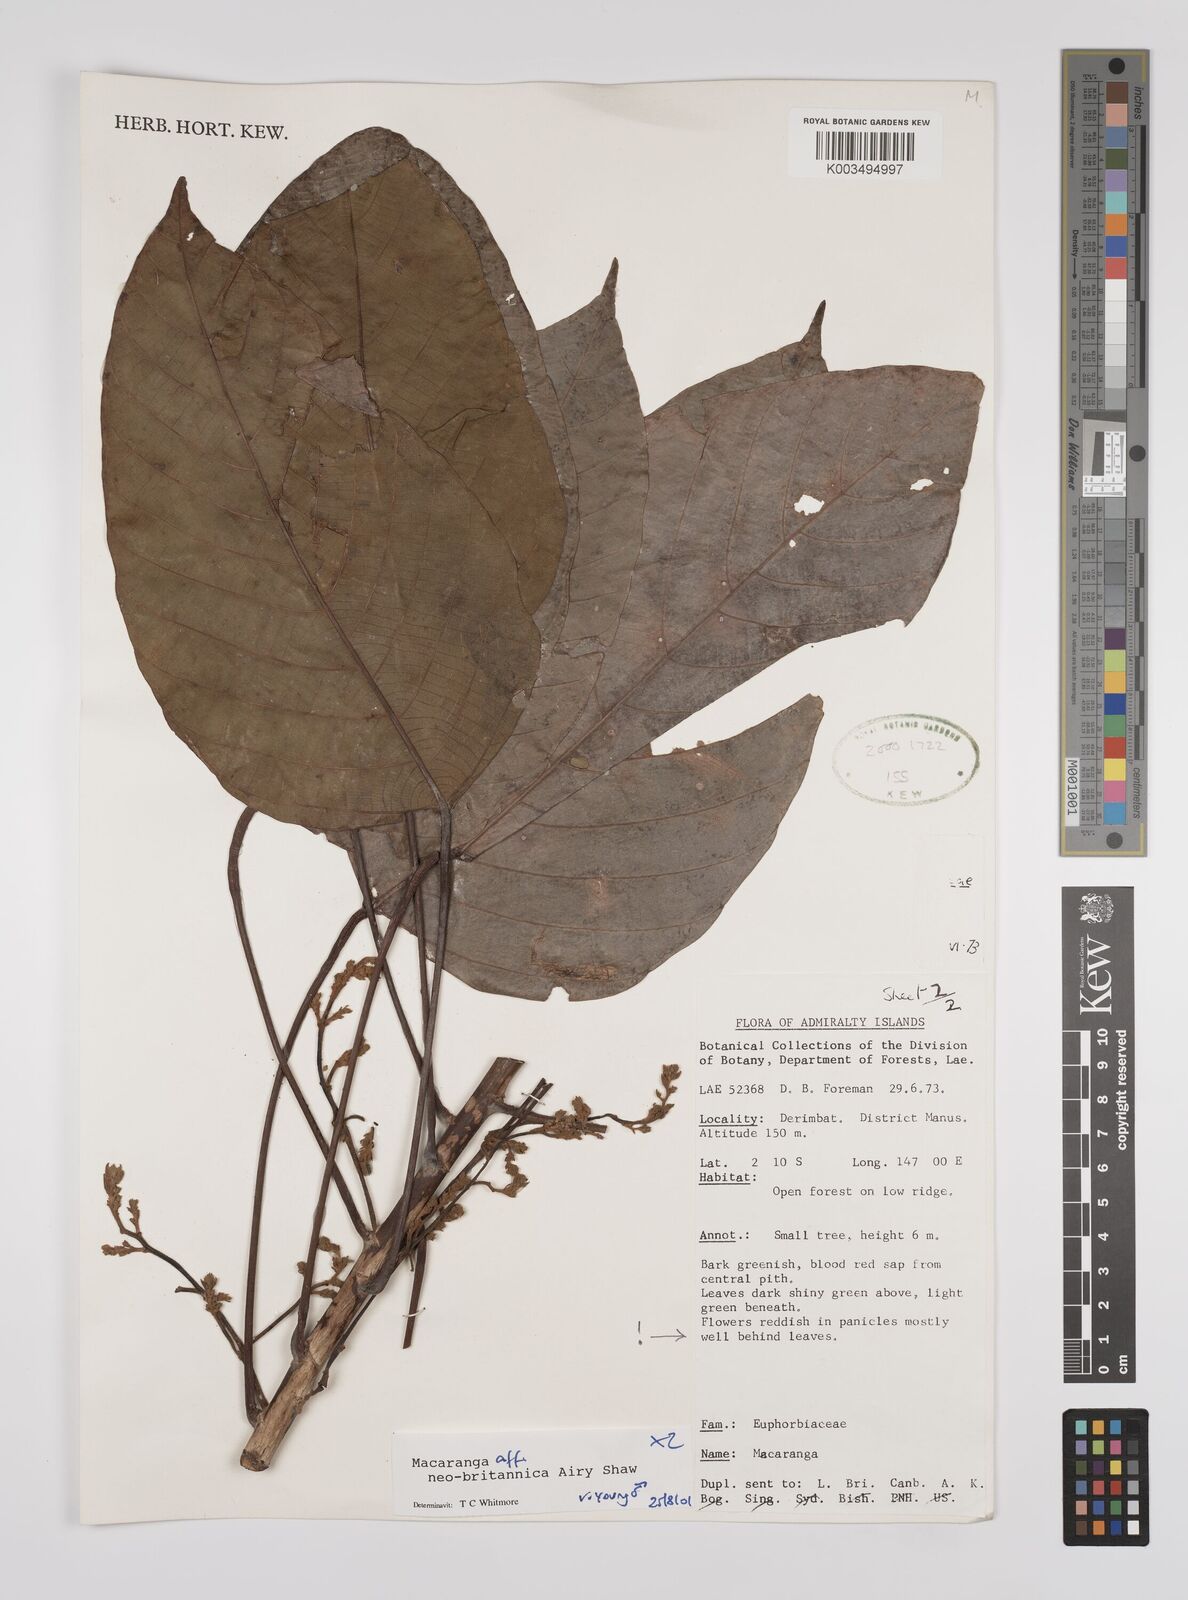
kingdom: Plantae
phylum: Tracheophyta
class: Magnoliopsida
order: Malpighiales
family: Euphorbiaceae
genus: Macaranga
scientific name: Macaranga neobritannica
